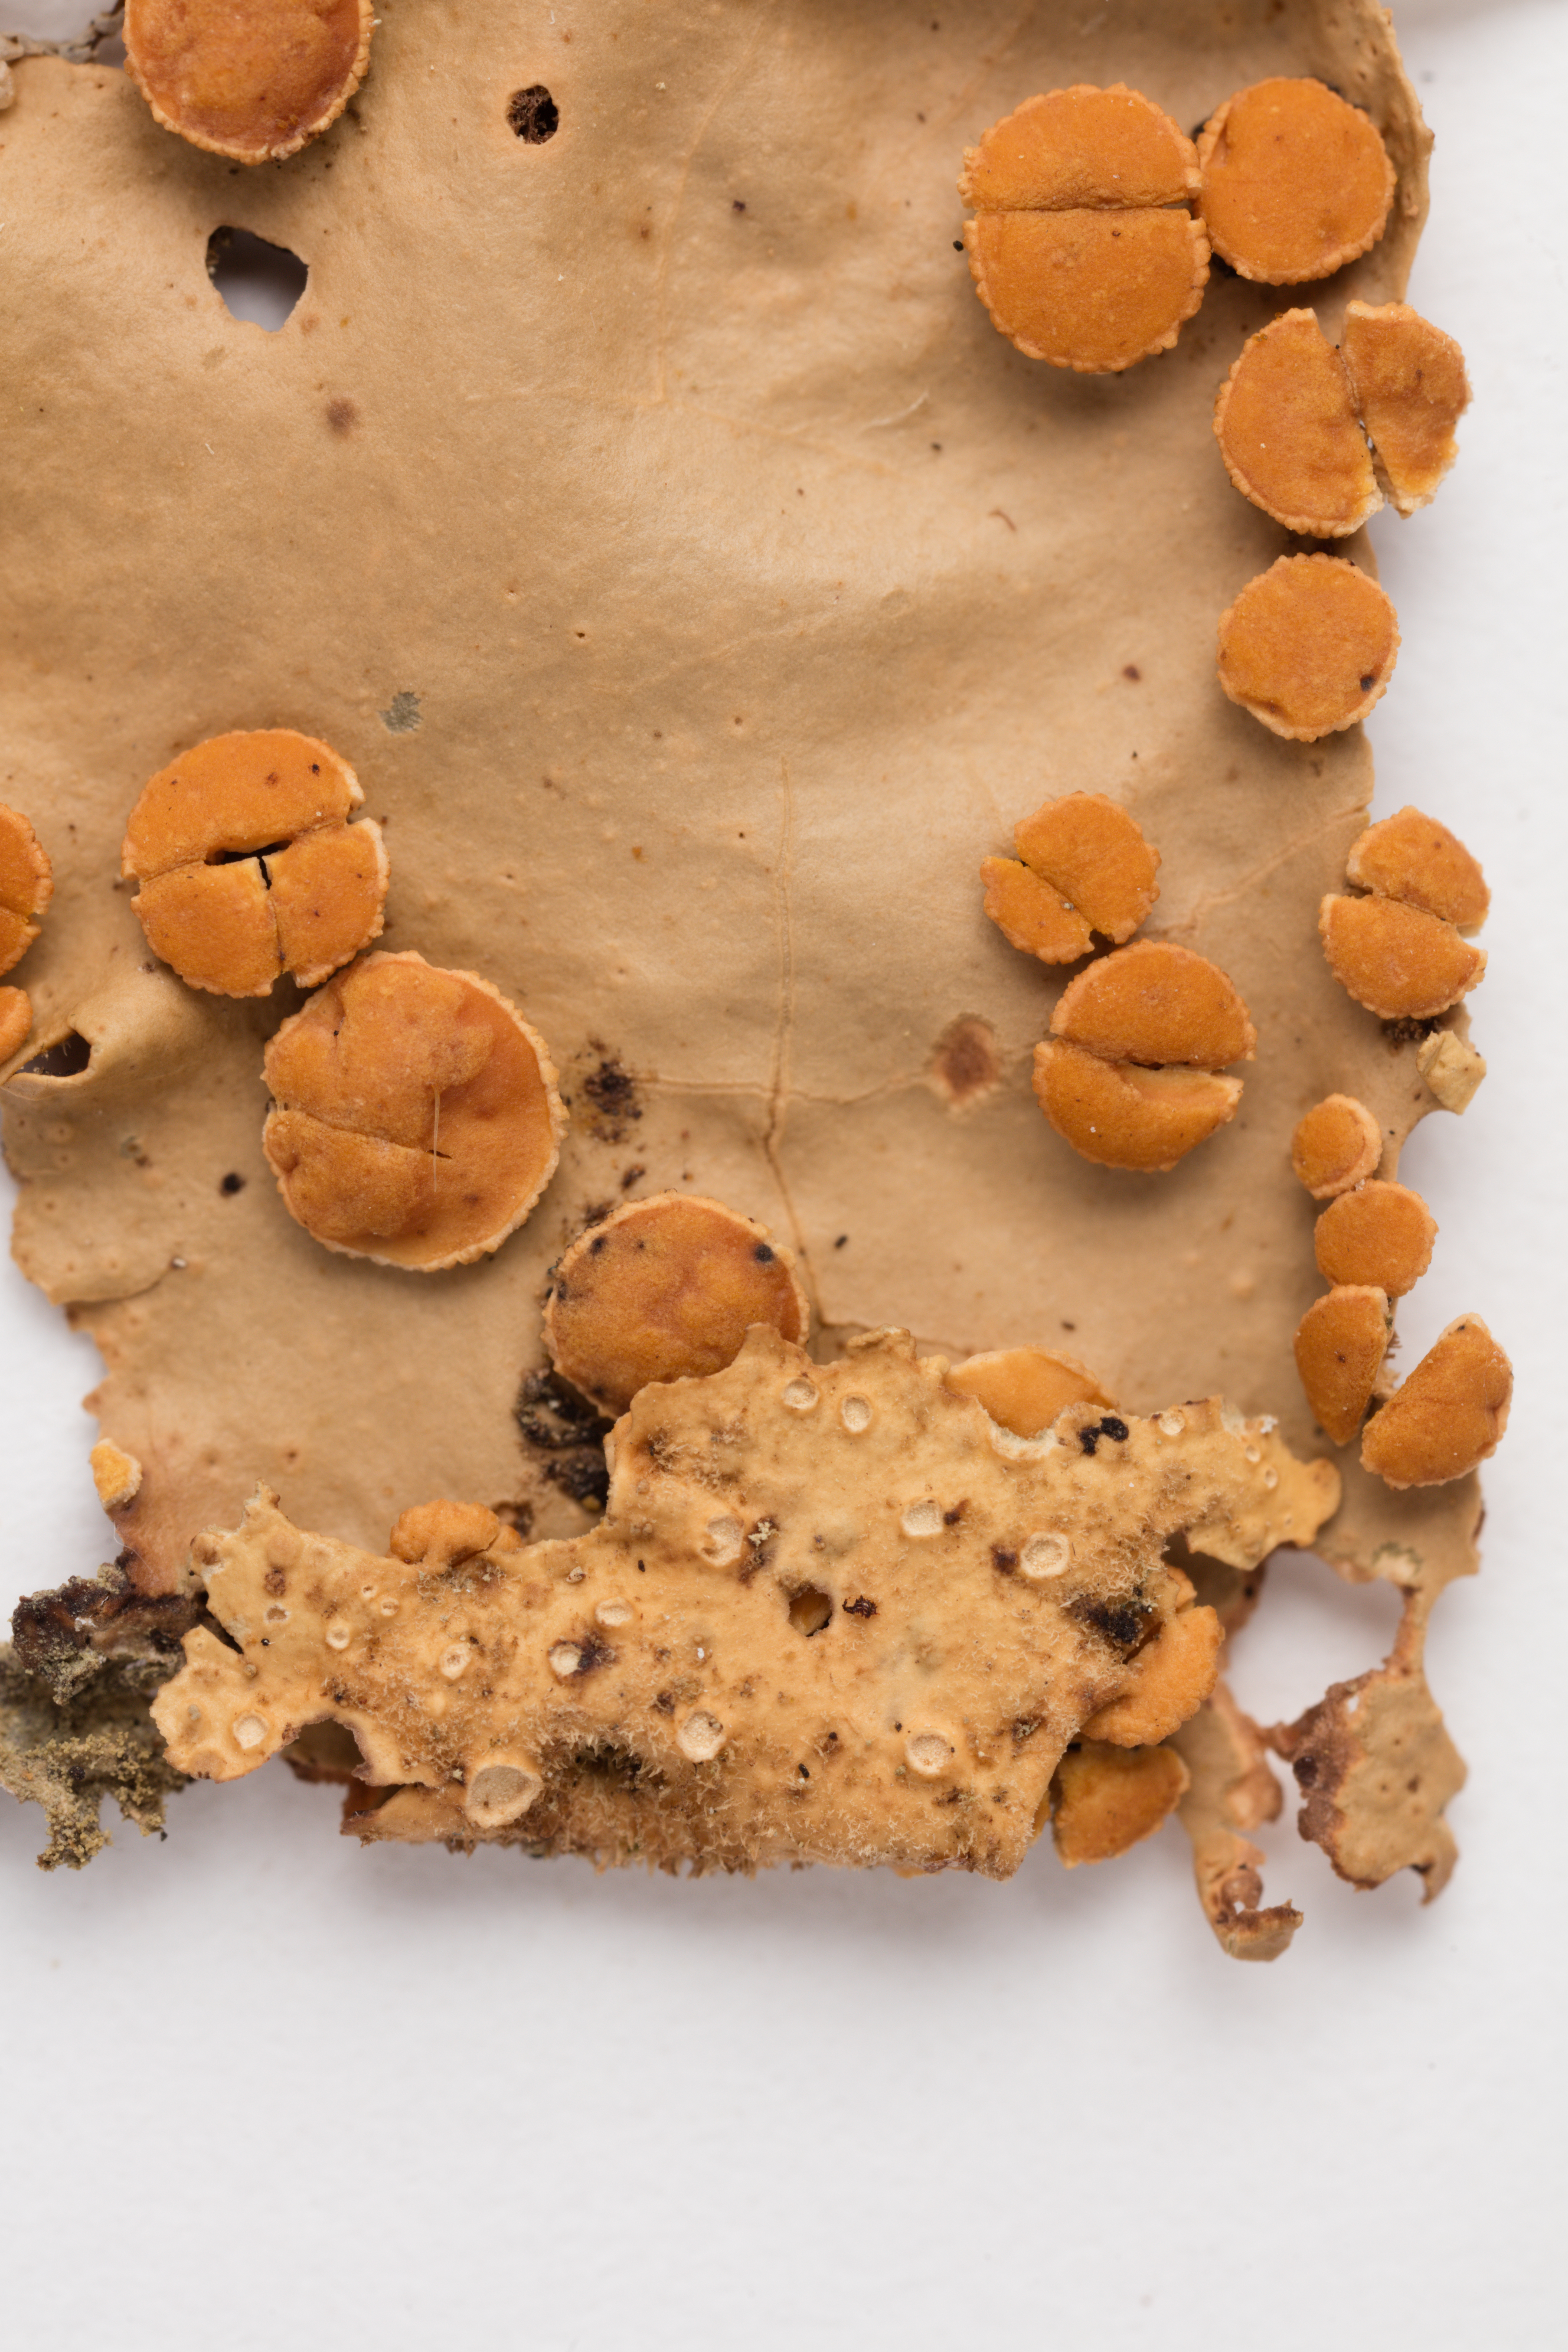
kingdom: Fungi
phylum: Ascomycota
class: Lecanoromycetes
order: Peltigerales
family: Lobariaceae
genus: Sticta
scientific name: Sticta subcaperata
